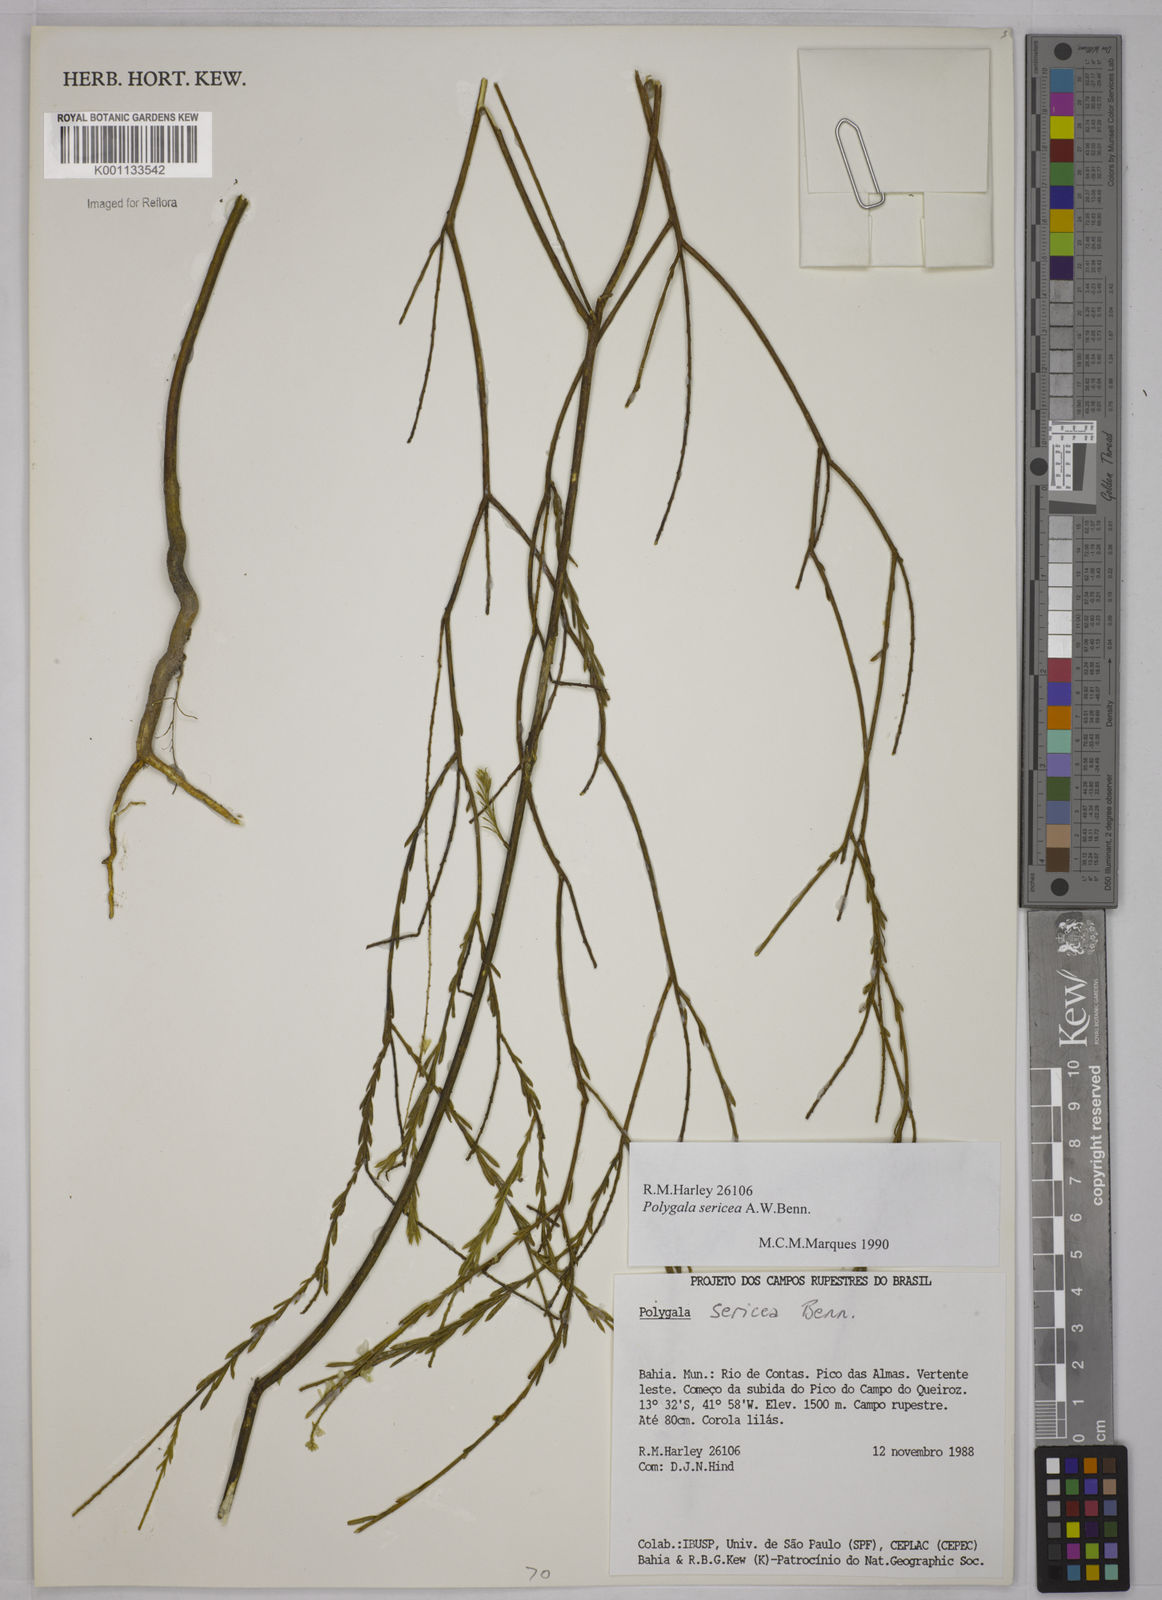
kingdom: Plantae
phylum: Tracheophyta
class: Magnoliopsida
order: Fabales
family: Polygalaceae
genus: Polygala
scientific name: Polygala sericea
